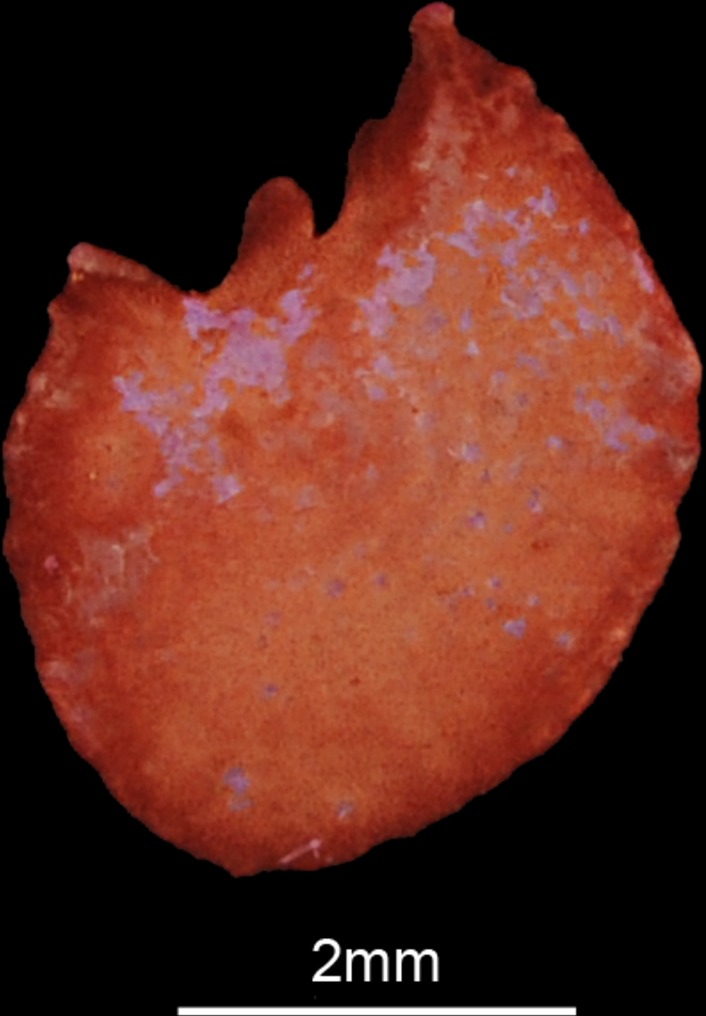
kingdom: Animalia
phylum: Chordata
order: Cypriniformes
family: Cyprinidae
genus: Barbus
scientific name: Barbus barbus
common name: Barbel
